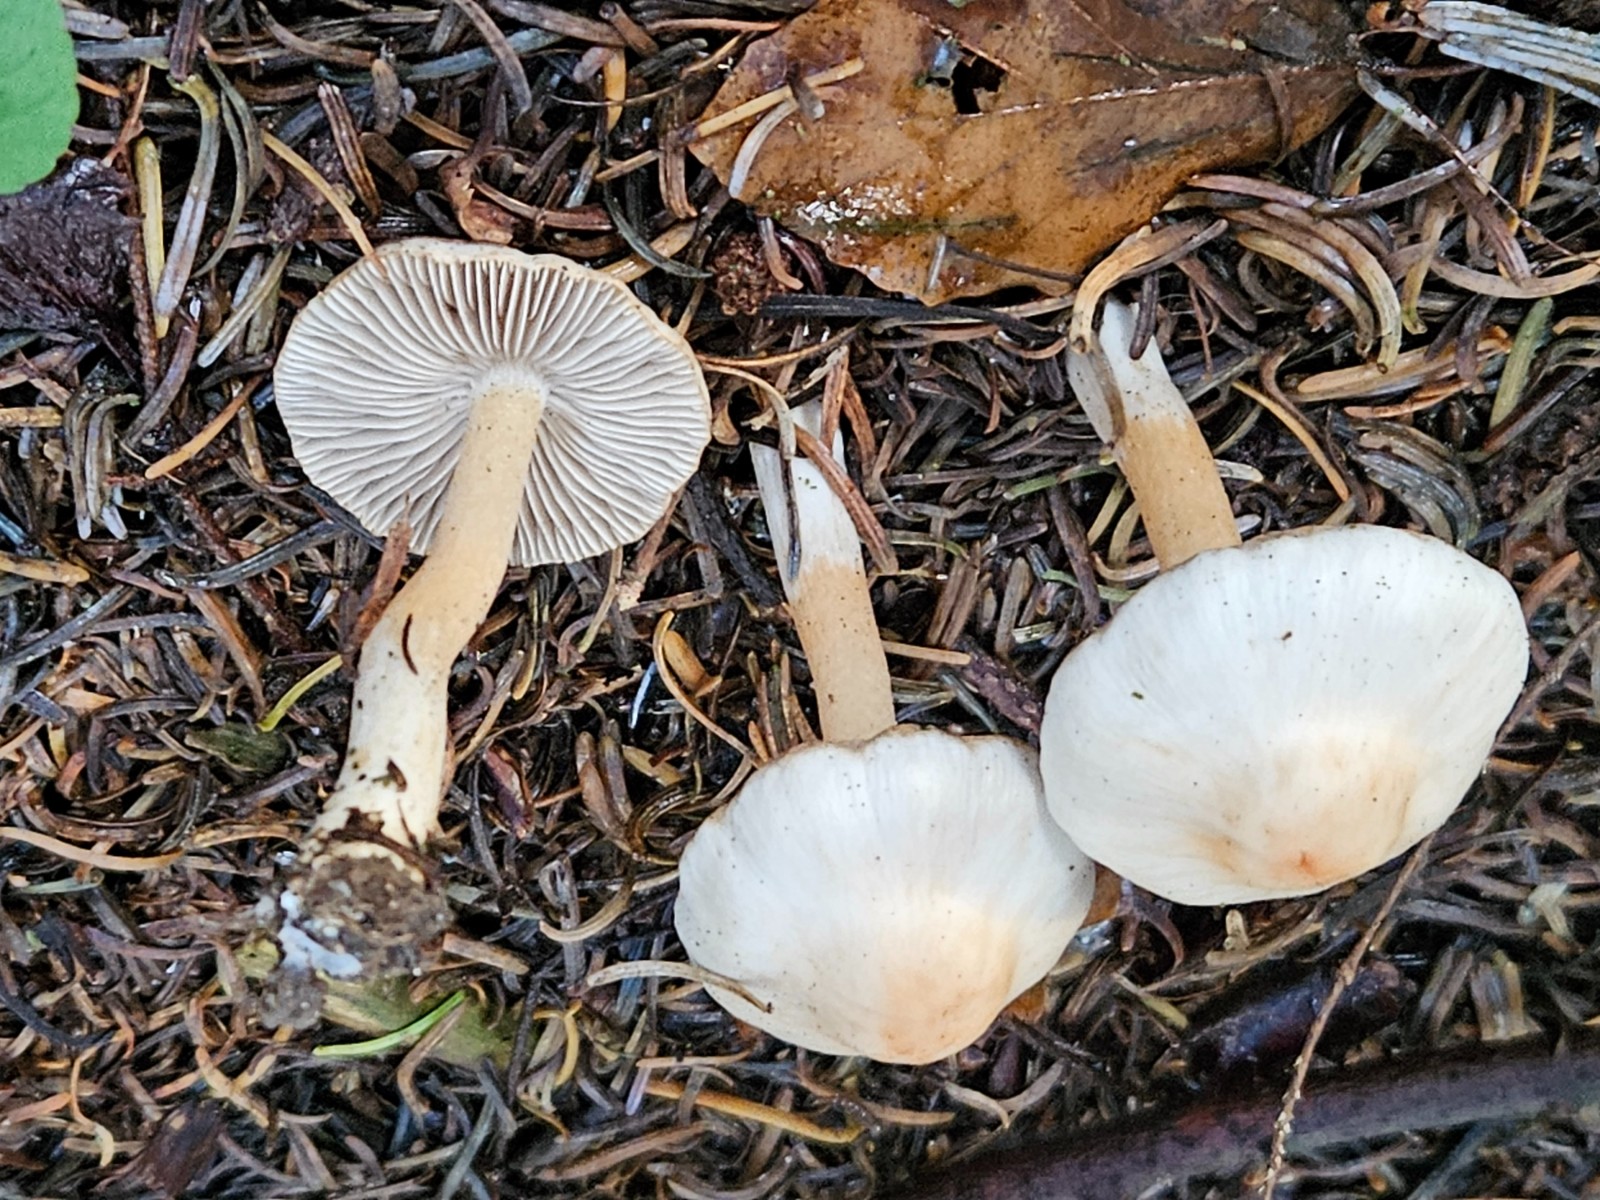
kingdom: Fungi
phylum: Basidiomycota
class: Agaricomycetes
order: Agaricales
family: Inocybaceae
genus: Inocybe
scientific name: Inocybe
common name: trævlhat
